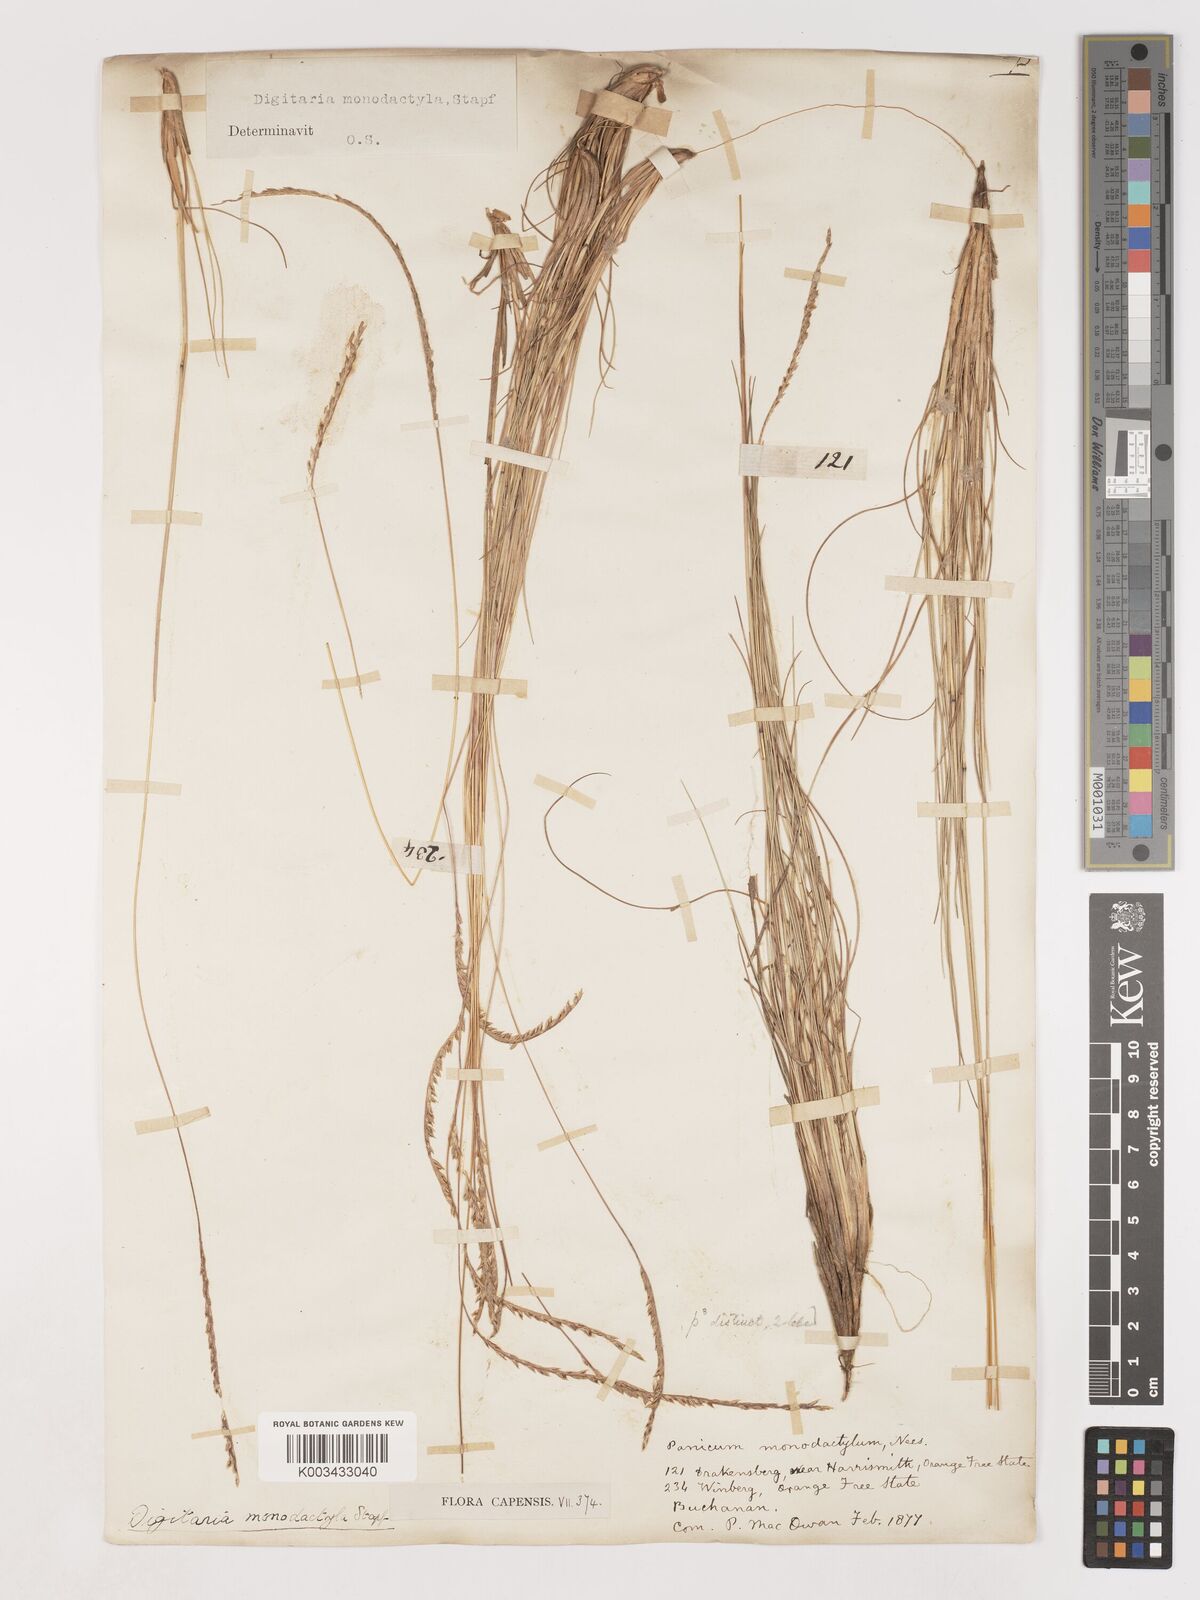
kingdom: Plantae
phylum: Tracheophyta
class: Liliopsida
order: Poales
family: Poaceae
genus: Digitaria
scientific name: Digitaria monodactyla
